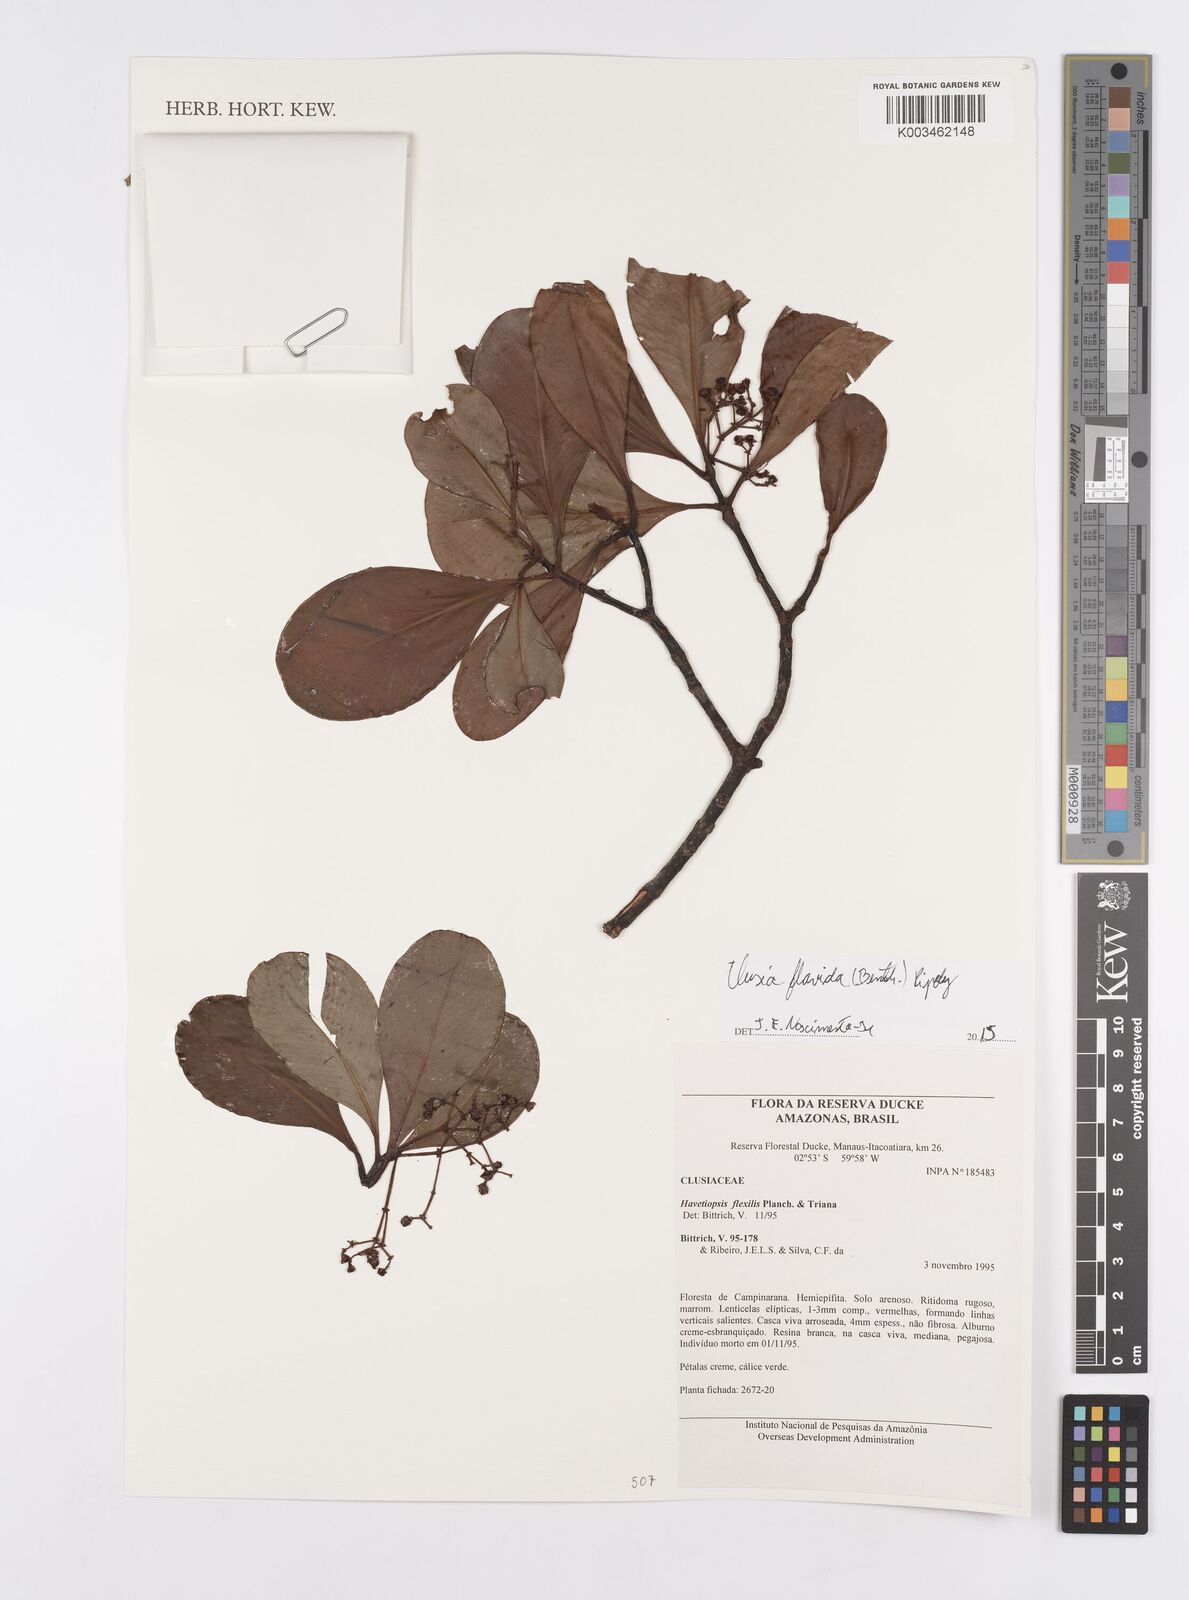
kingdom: Plantae
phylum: Tracheophyta
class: Magnoliopsida
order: Malpighiales
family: Clusiaceae
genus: Clusia
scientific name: Clusia flavida
